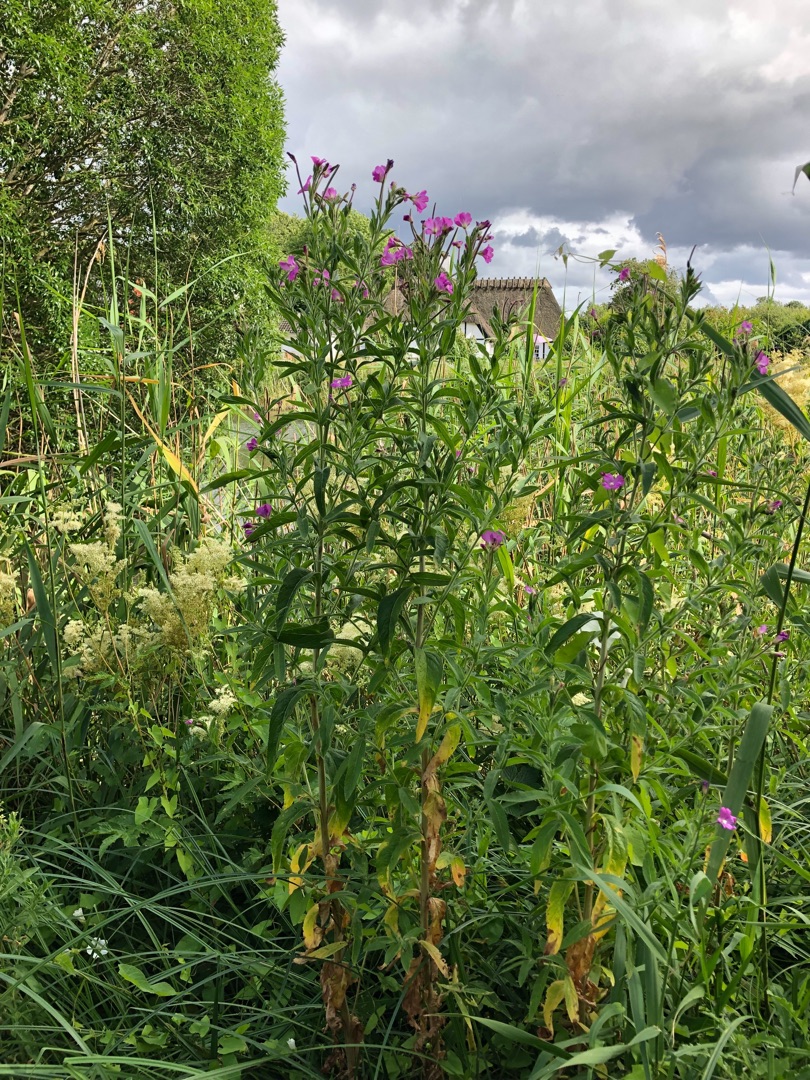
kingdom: Plantae
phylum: Tracheophyta
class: Magnoliopsida
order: Myrtales
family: Onagraceae
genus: Epilobium
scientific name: Epilobium hirsutum
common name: Lådden dueurt
